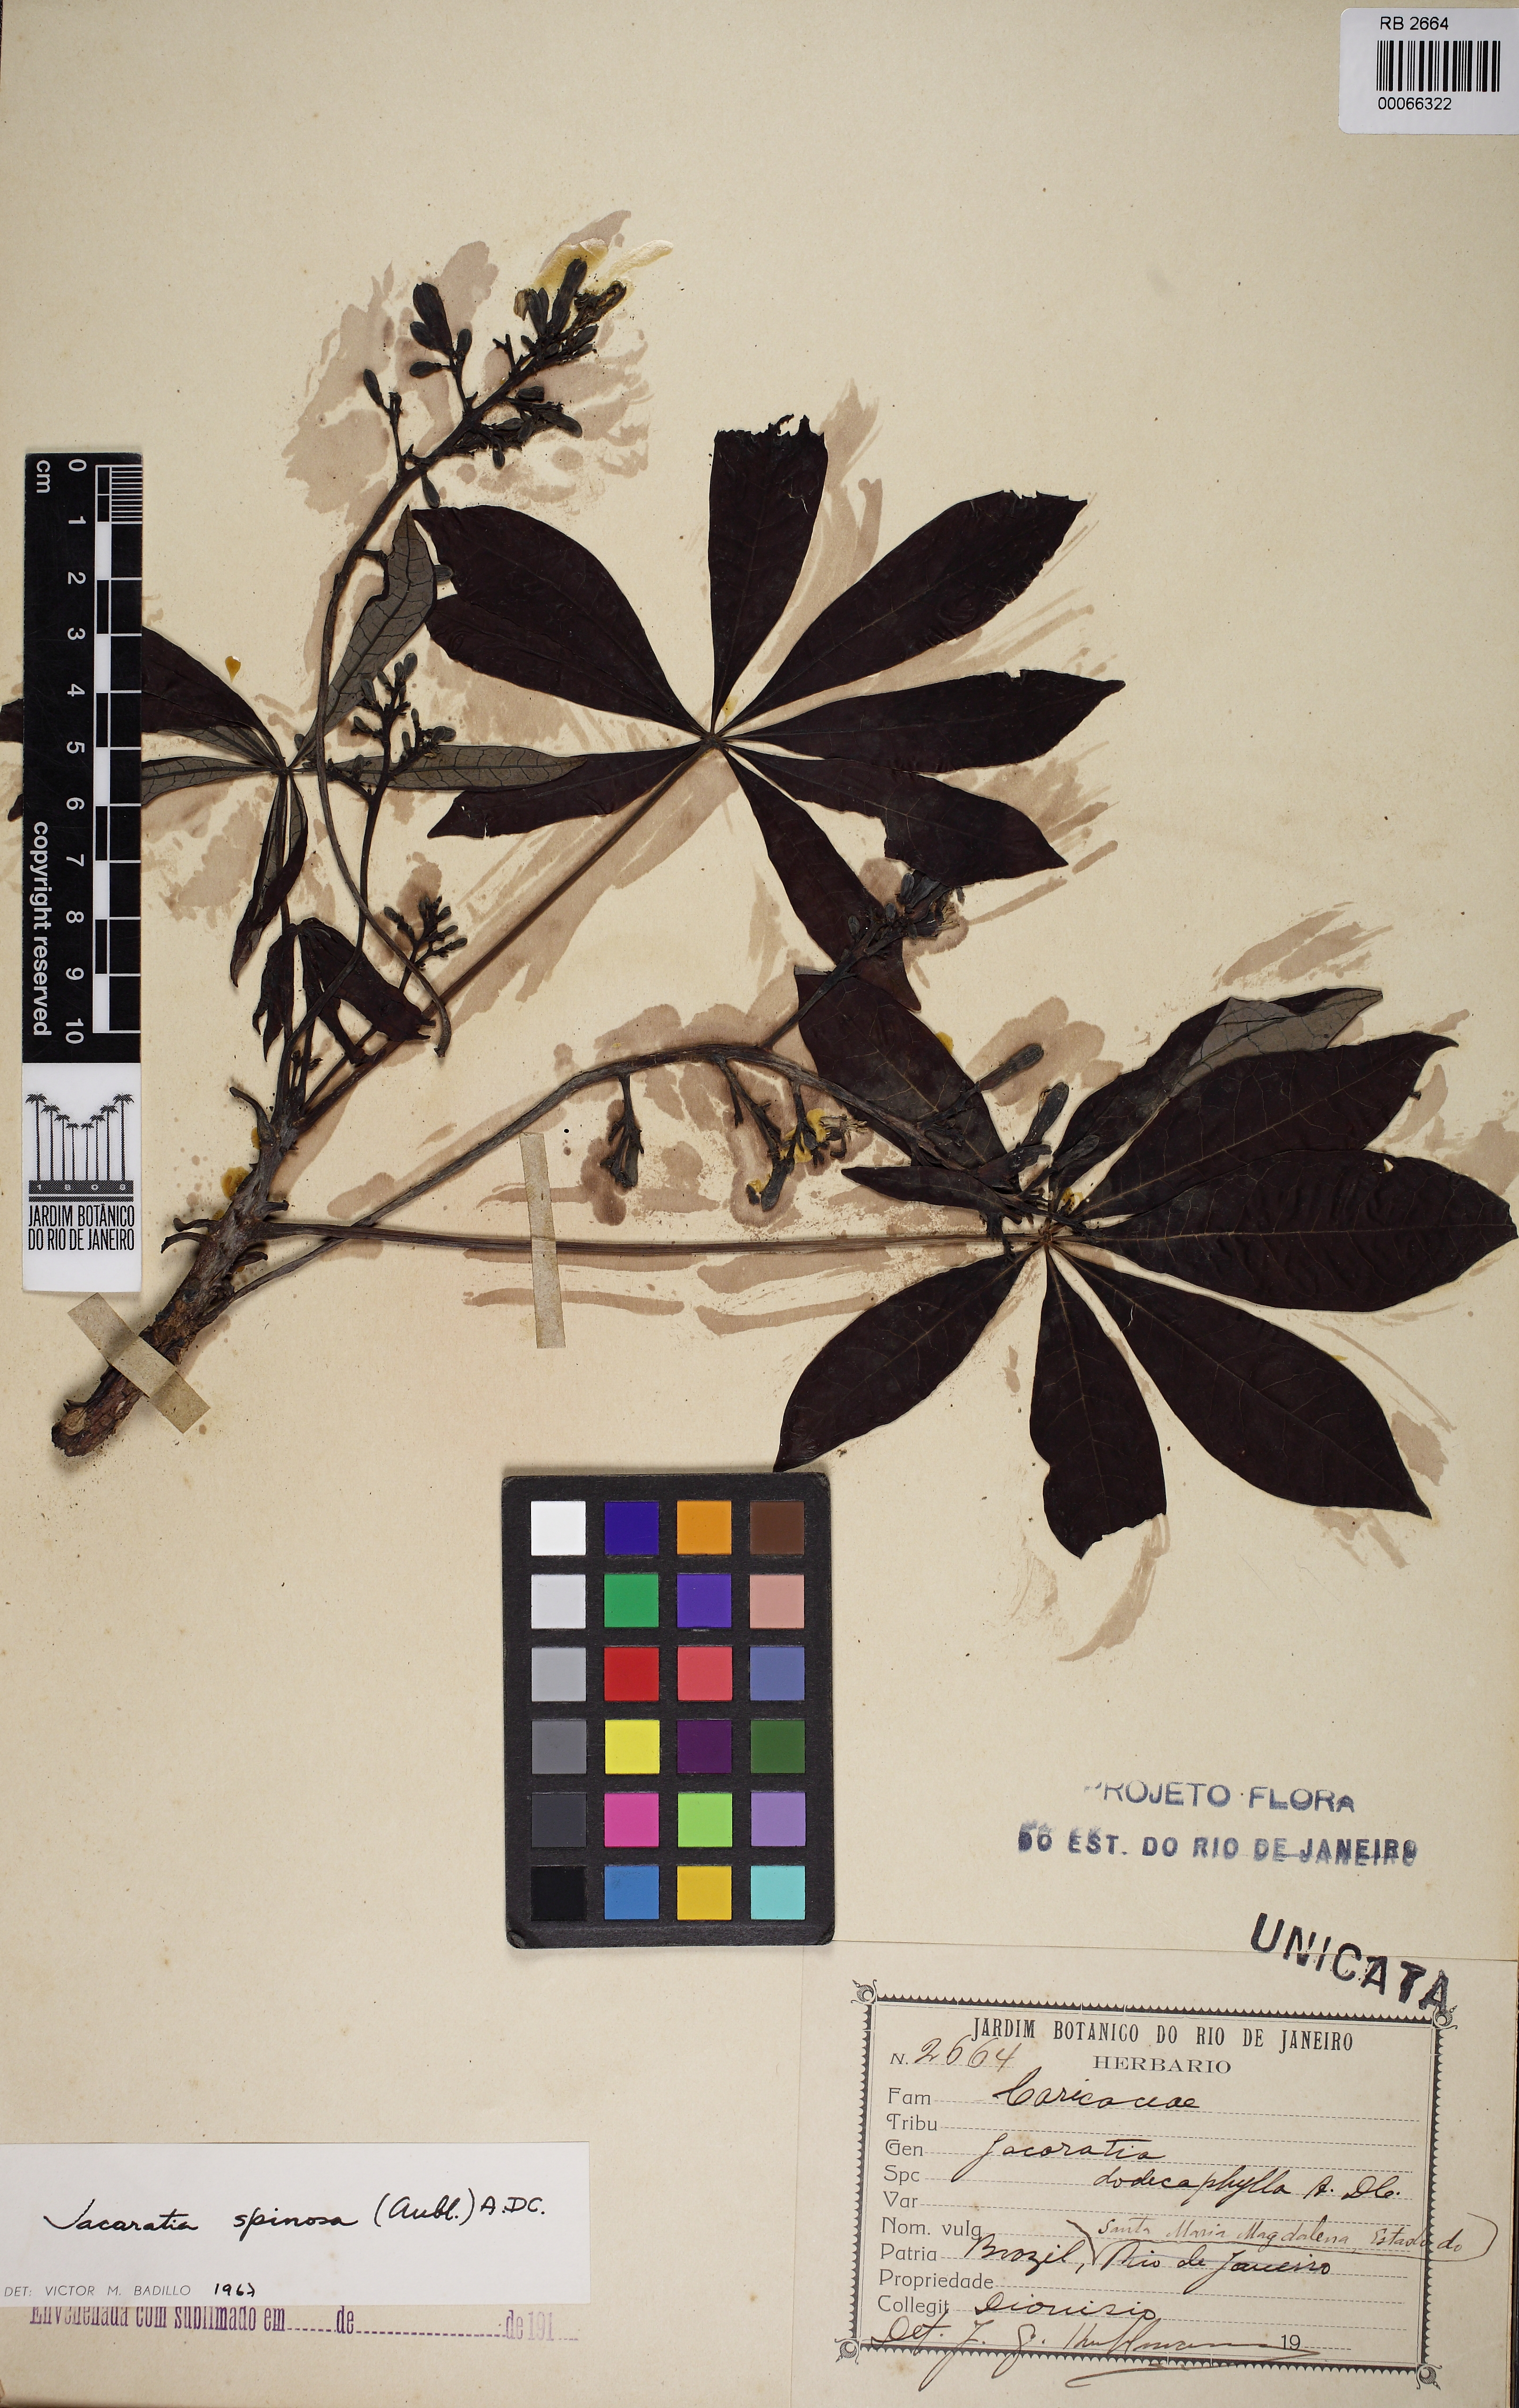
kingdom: Plantae
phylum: Tracheophyta
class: Magnoliopsida
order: Brassicales
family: Caricaceae
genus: Jacaratia
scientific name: Jacaratia spinosa
